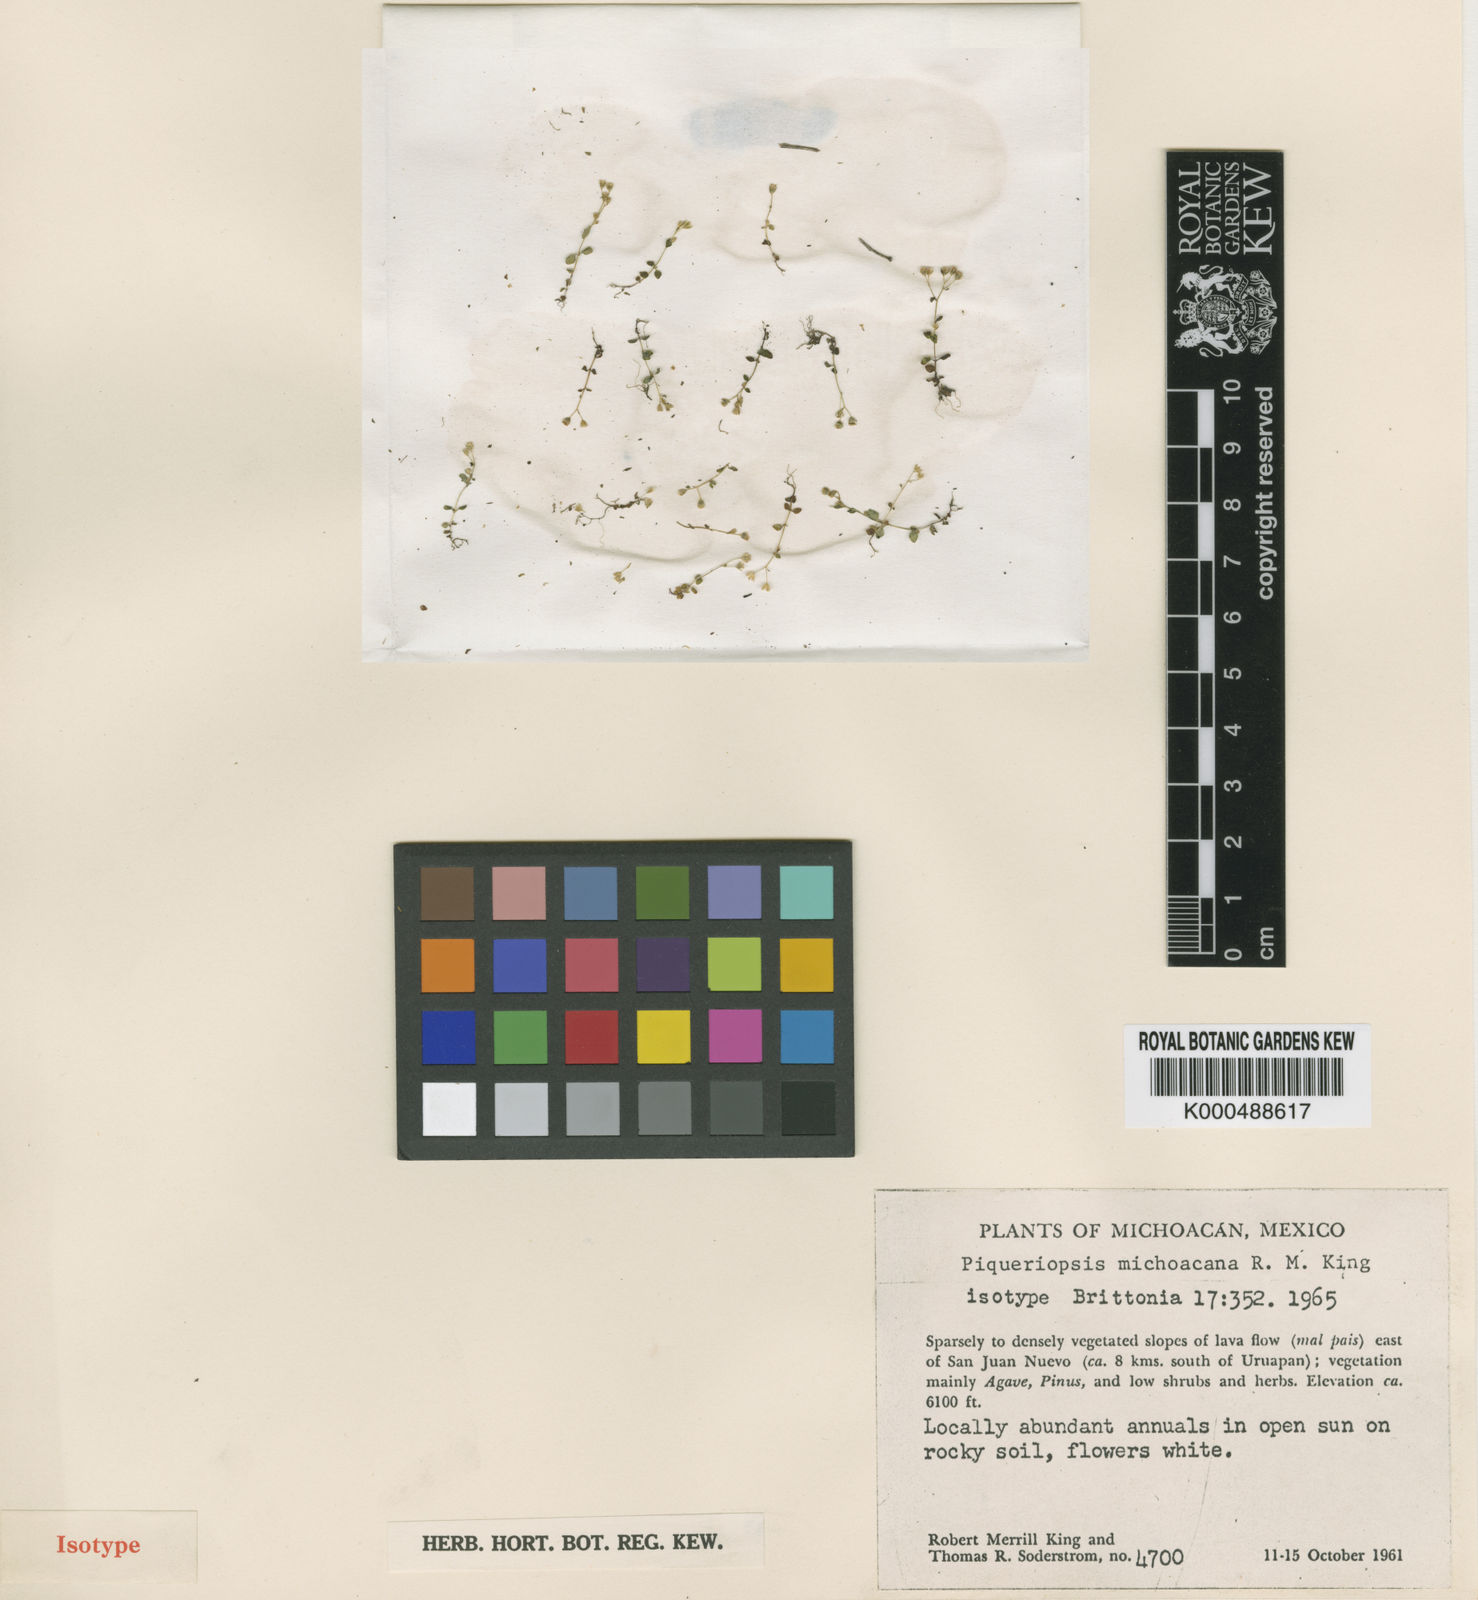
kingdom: Plantae
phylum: Tracheophyta
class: Magnoliopsida
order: Asterales
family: Asteraceae
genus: Microspermum
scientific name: Microspermum michoacanum
